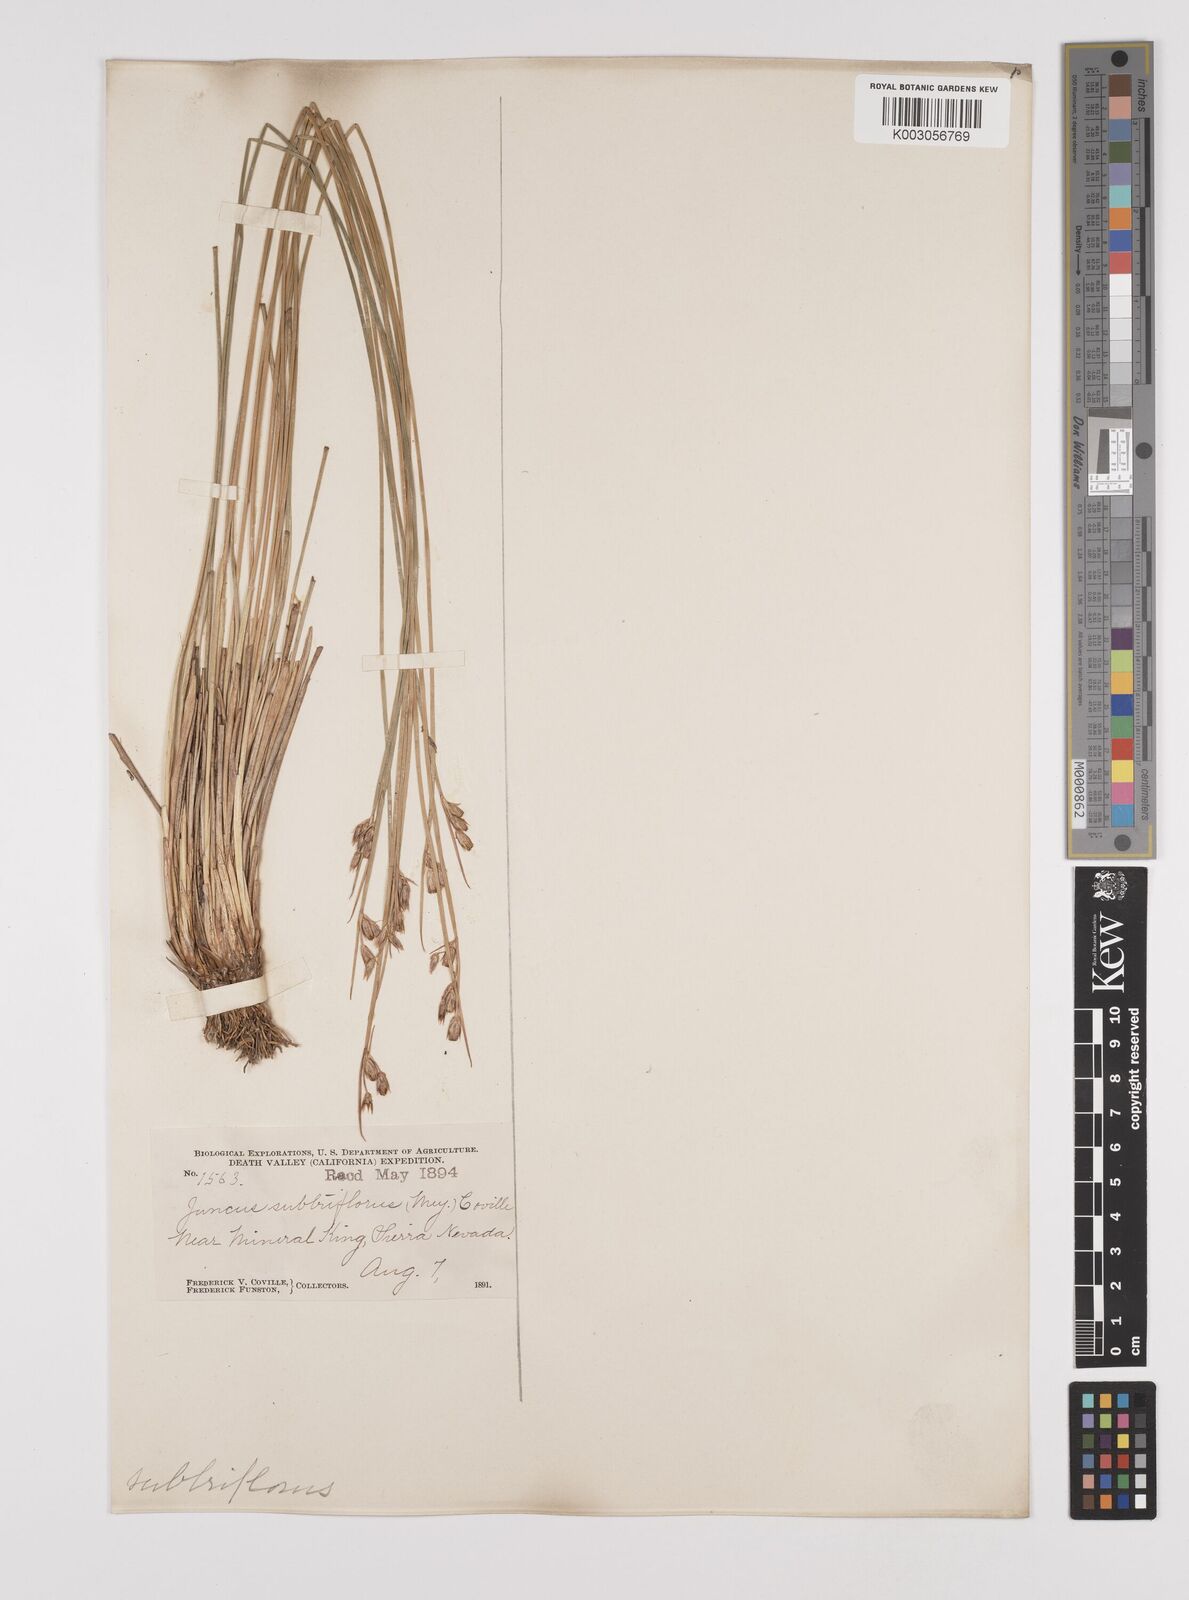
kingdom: Plantae
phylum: Tracheophyta
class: Liliopsida
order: Poales
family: Juncaceae
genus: Juncus
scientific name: Juncus drummondii
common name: Drummond's rush
